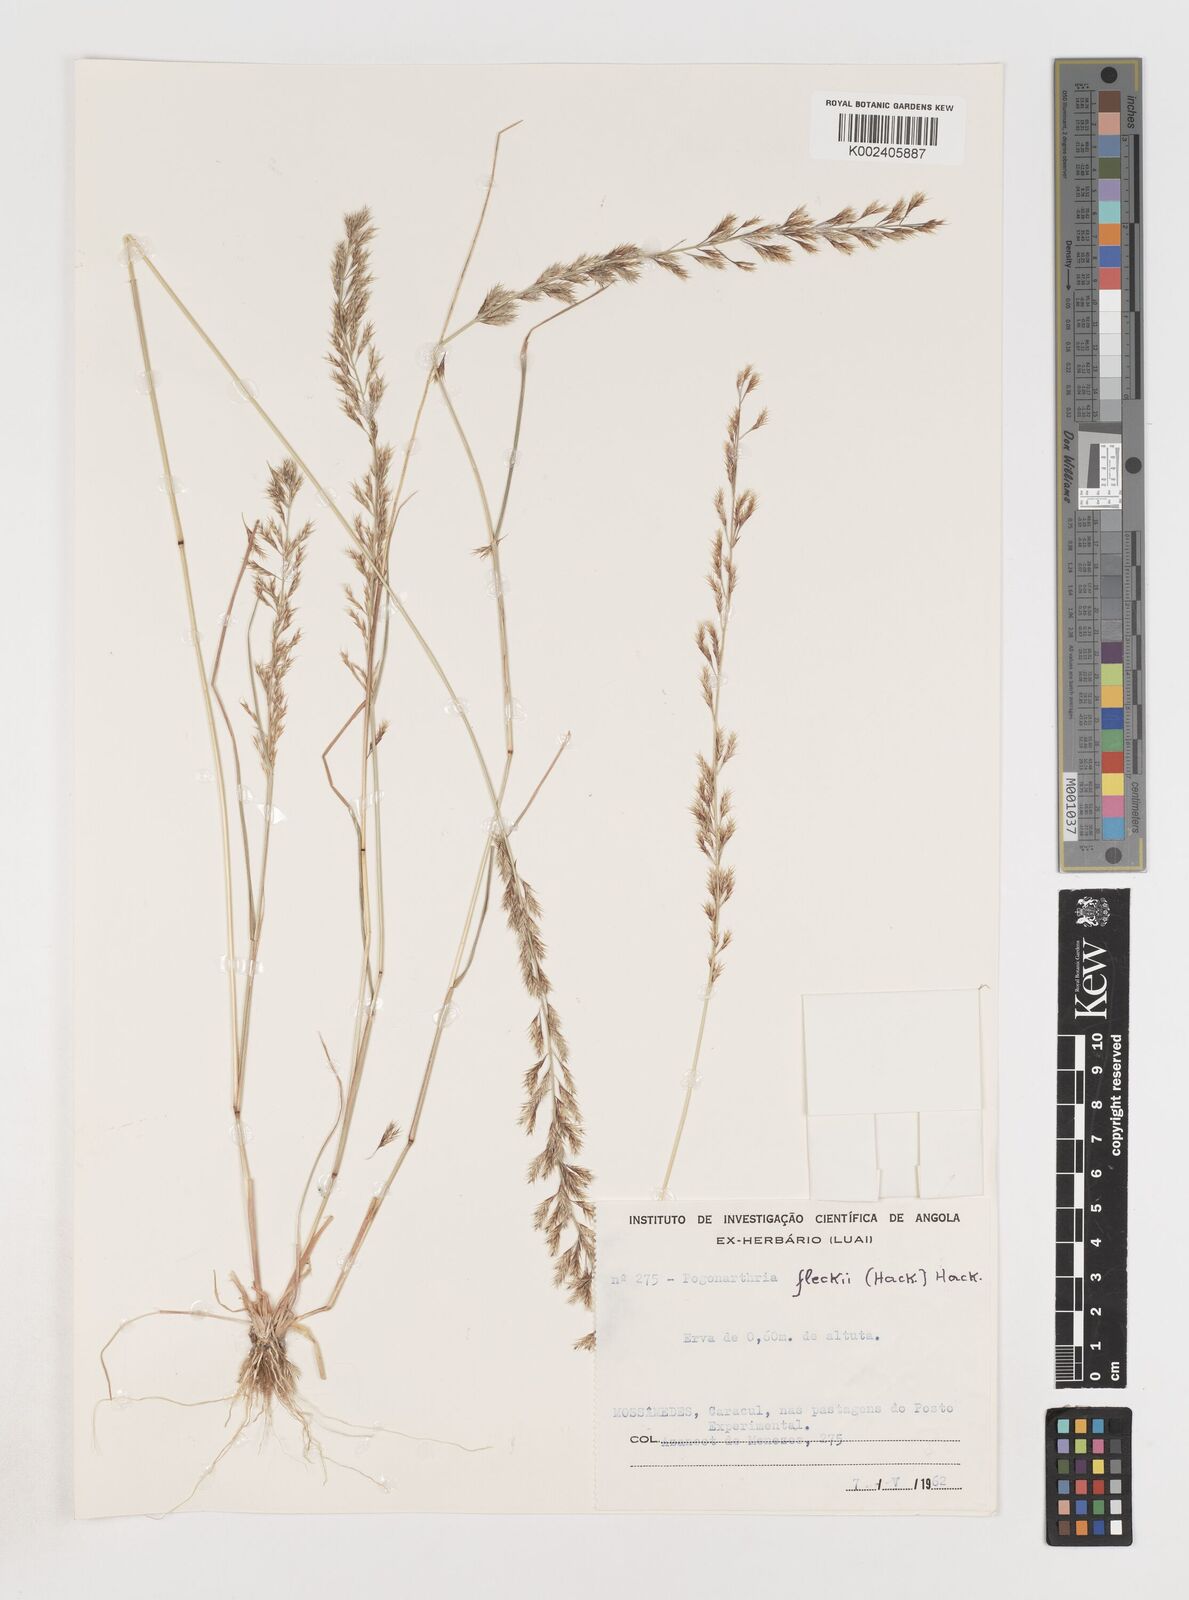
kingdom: Plantae
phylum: Tracheophyta
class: Liliopsida
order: Poales
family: Poaceae
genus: Pogonarthria
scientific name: Pogonarthria fleckii
